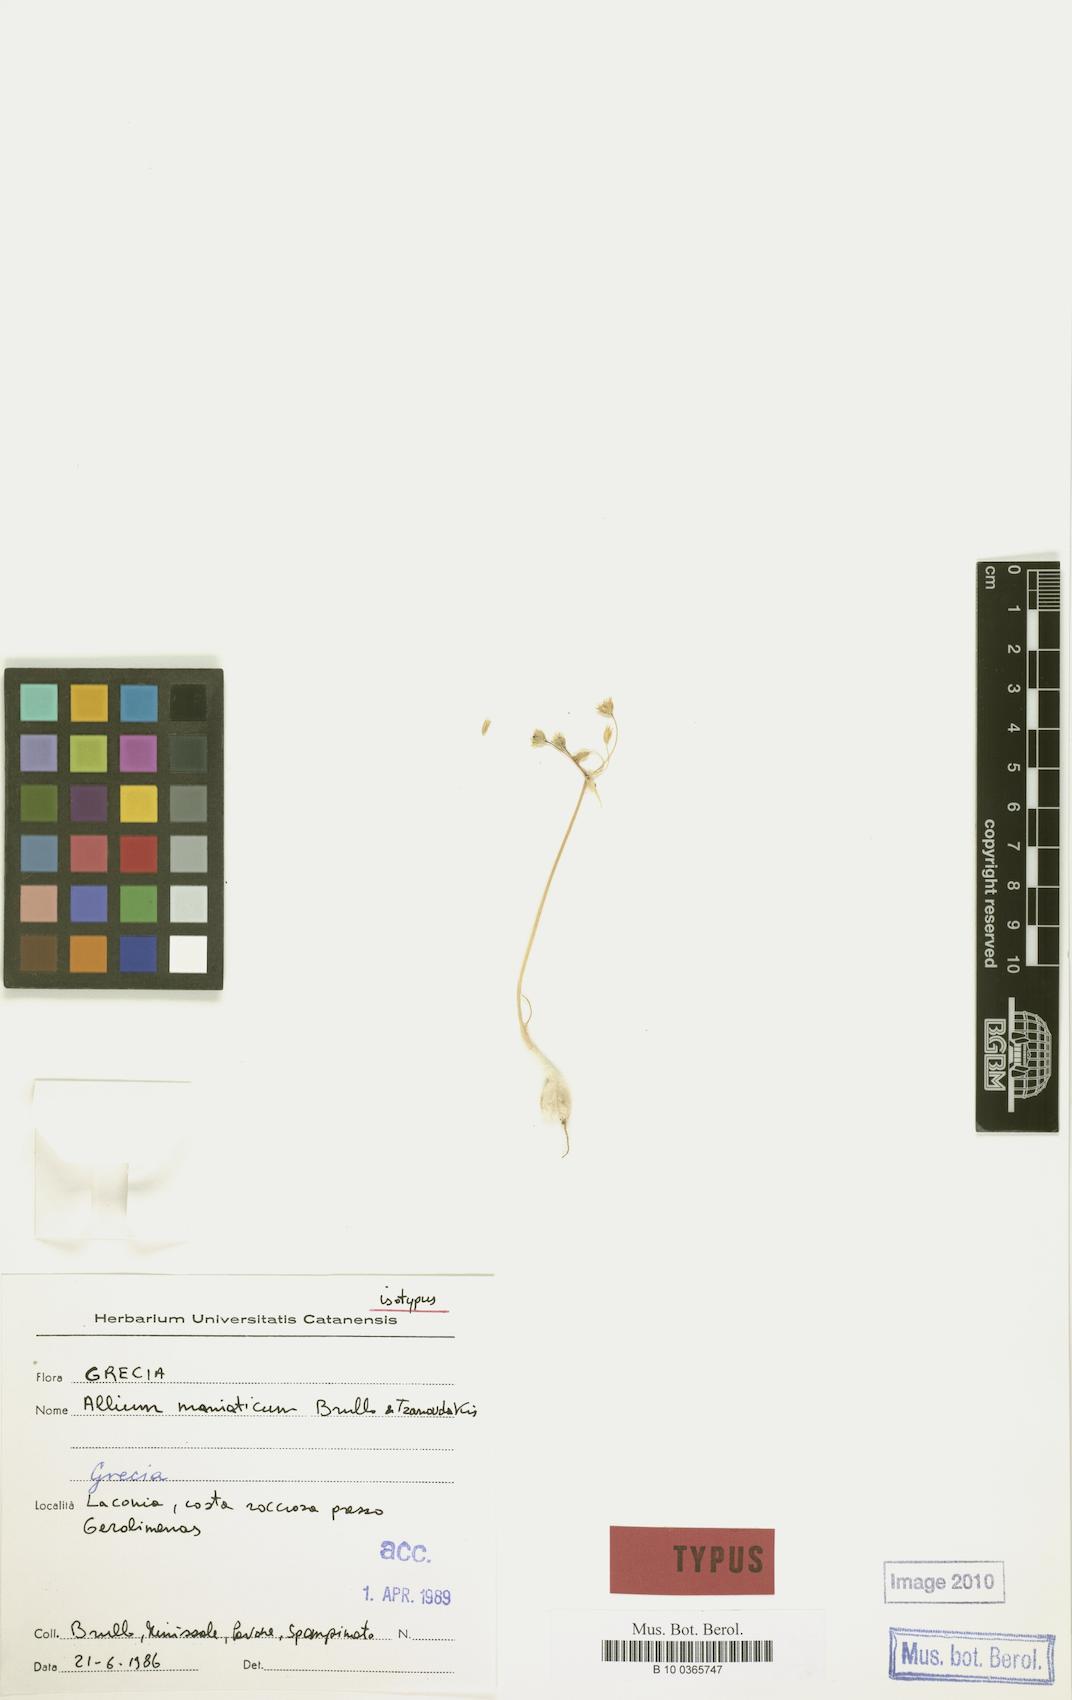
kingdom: Plantae
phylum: Tracheophyta
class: Liliopsida
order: Asparagales
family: Amaryllidaceae
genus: Allium
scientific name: Allium maniaticum
